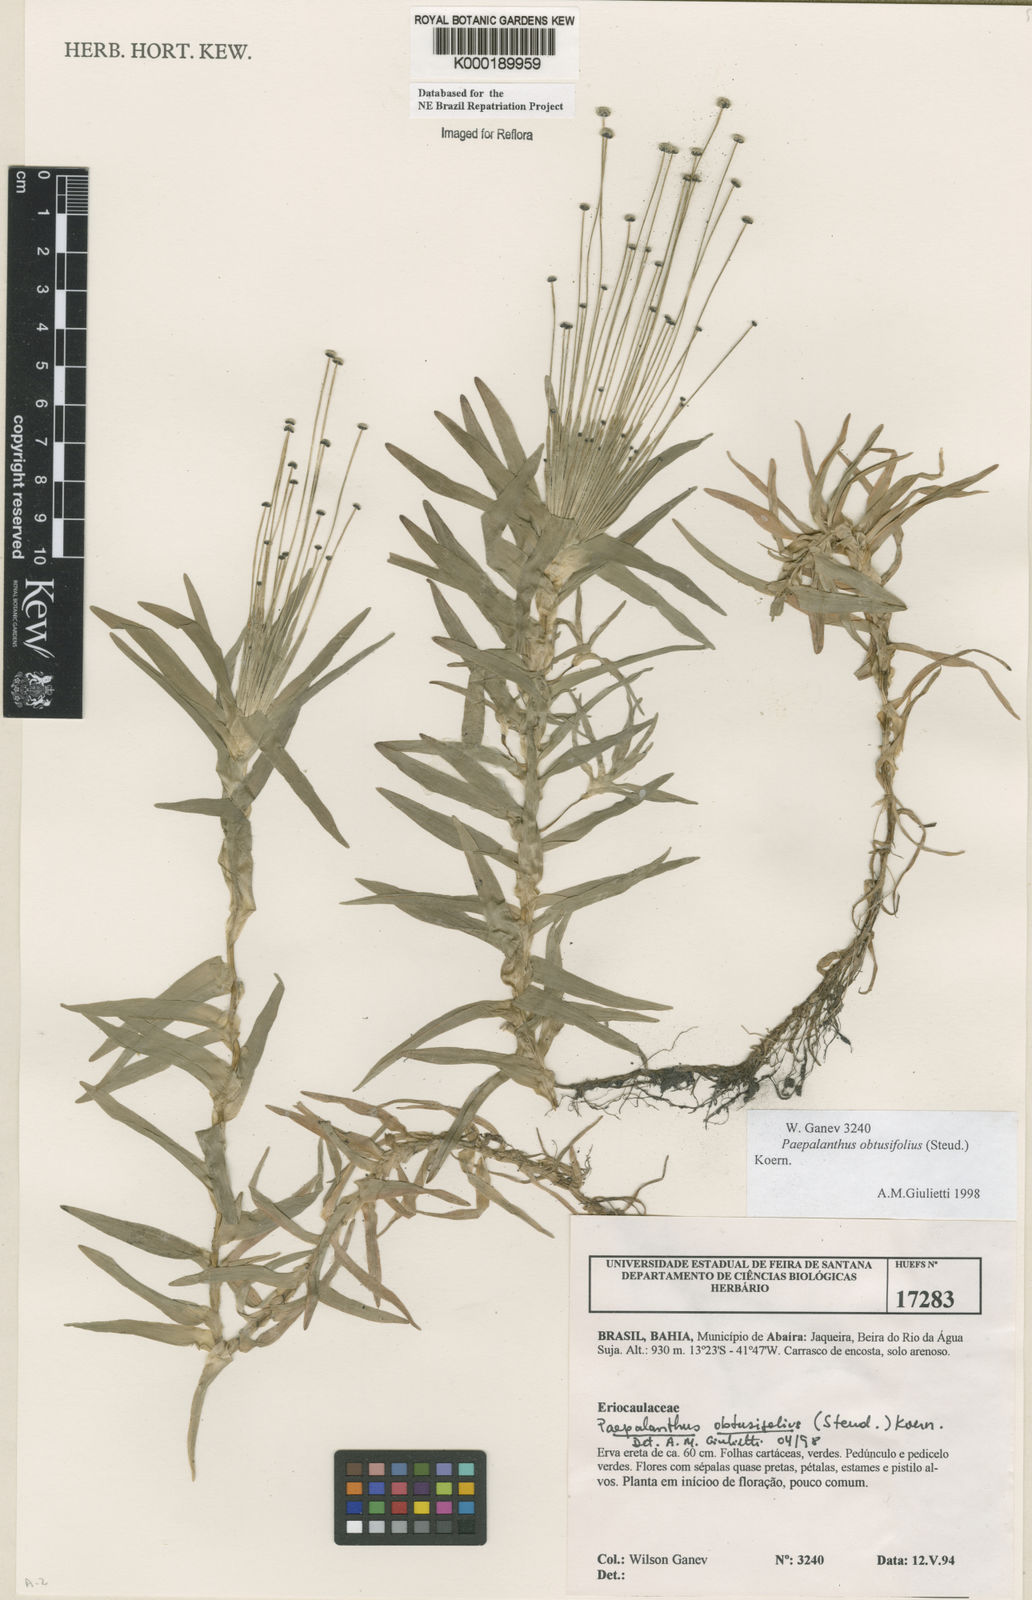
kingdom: Plantae
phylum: Tracheophyta
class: Liliopsida
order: Poales
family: Eriocaulaceae
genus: Paepalanthus
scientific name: Paepalanthus
